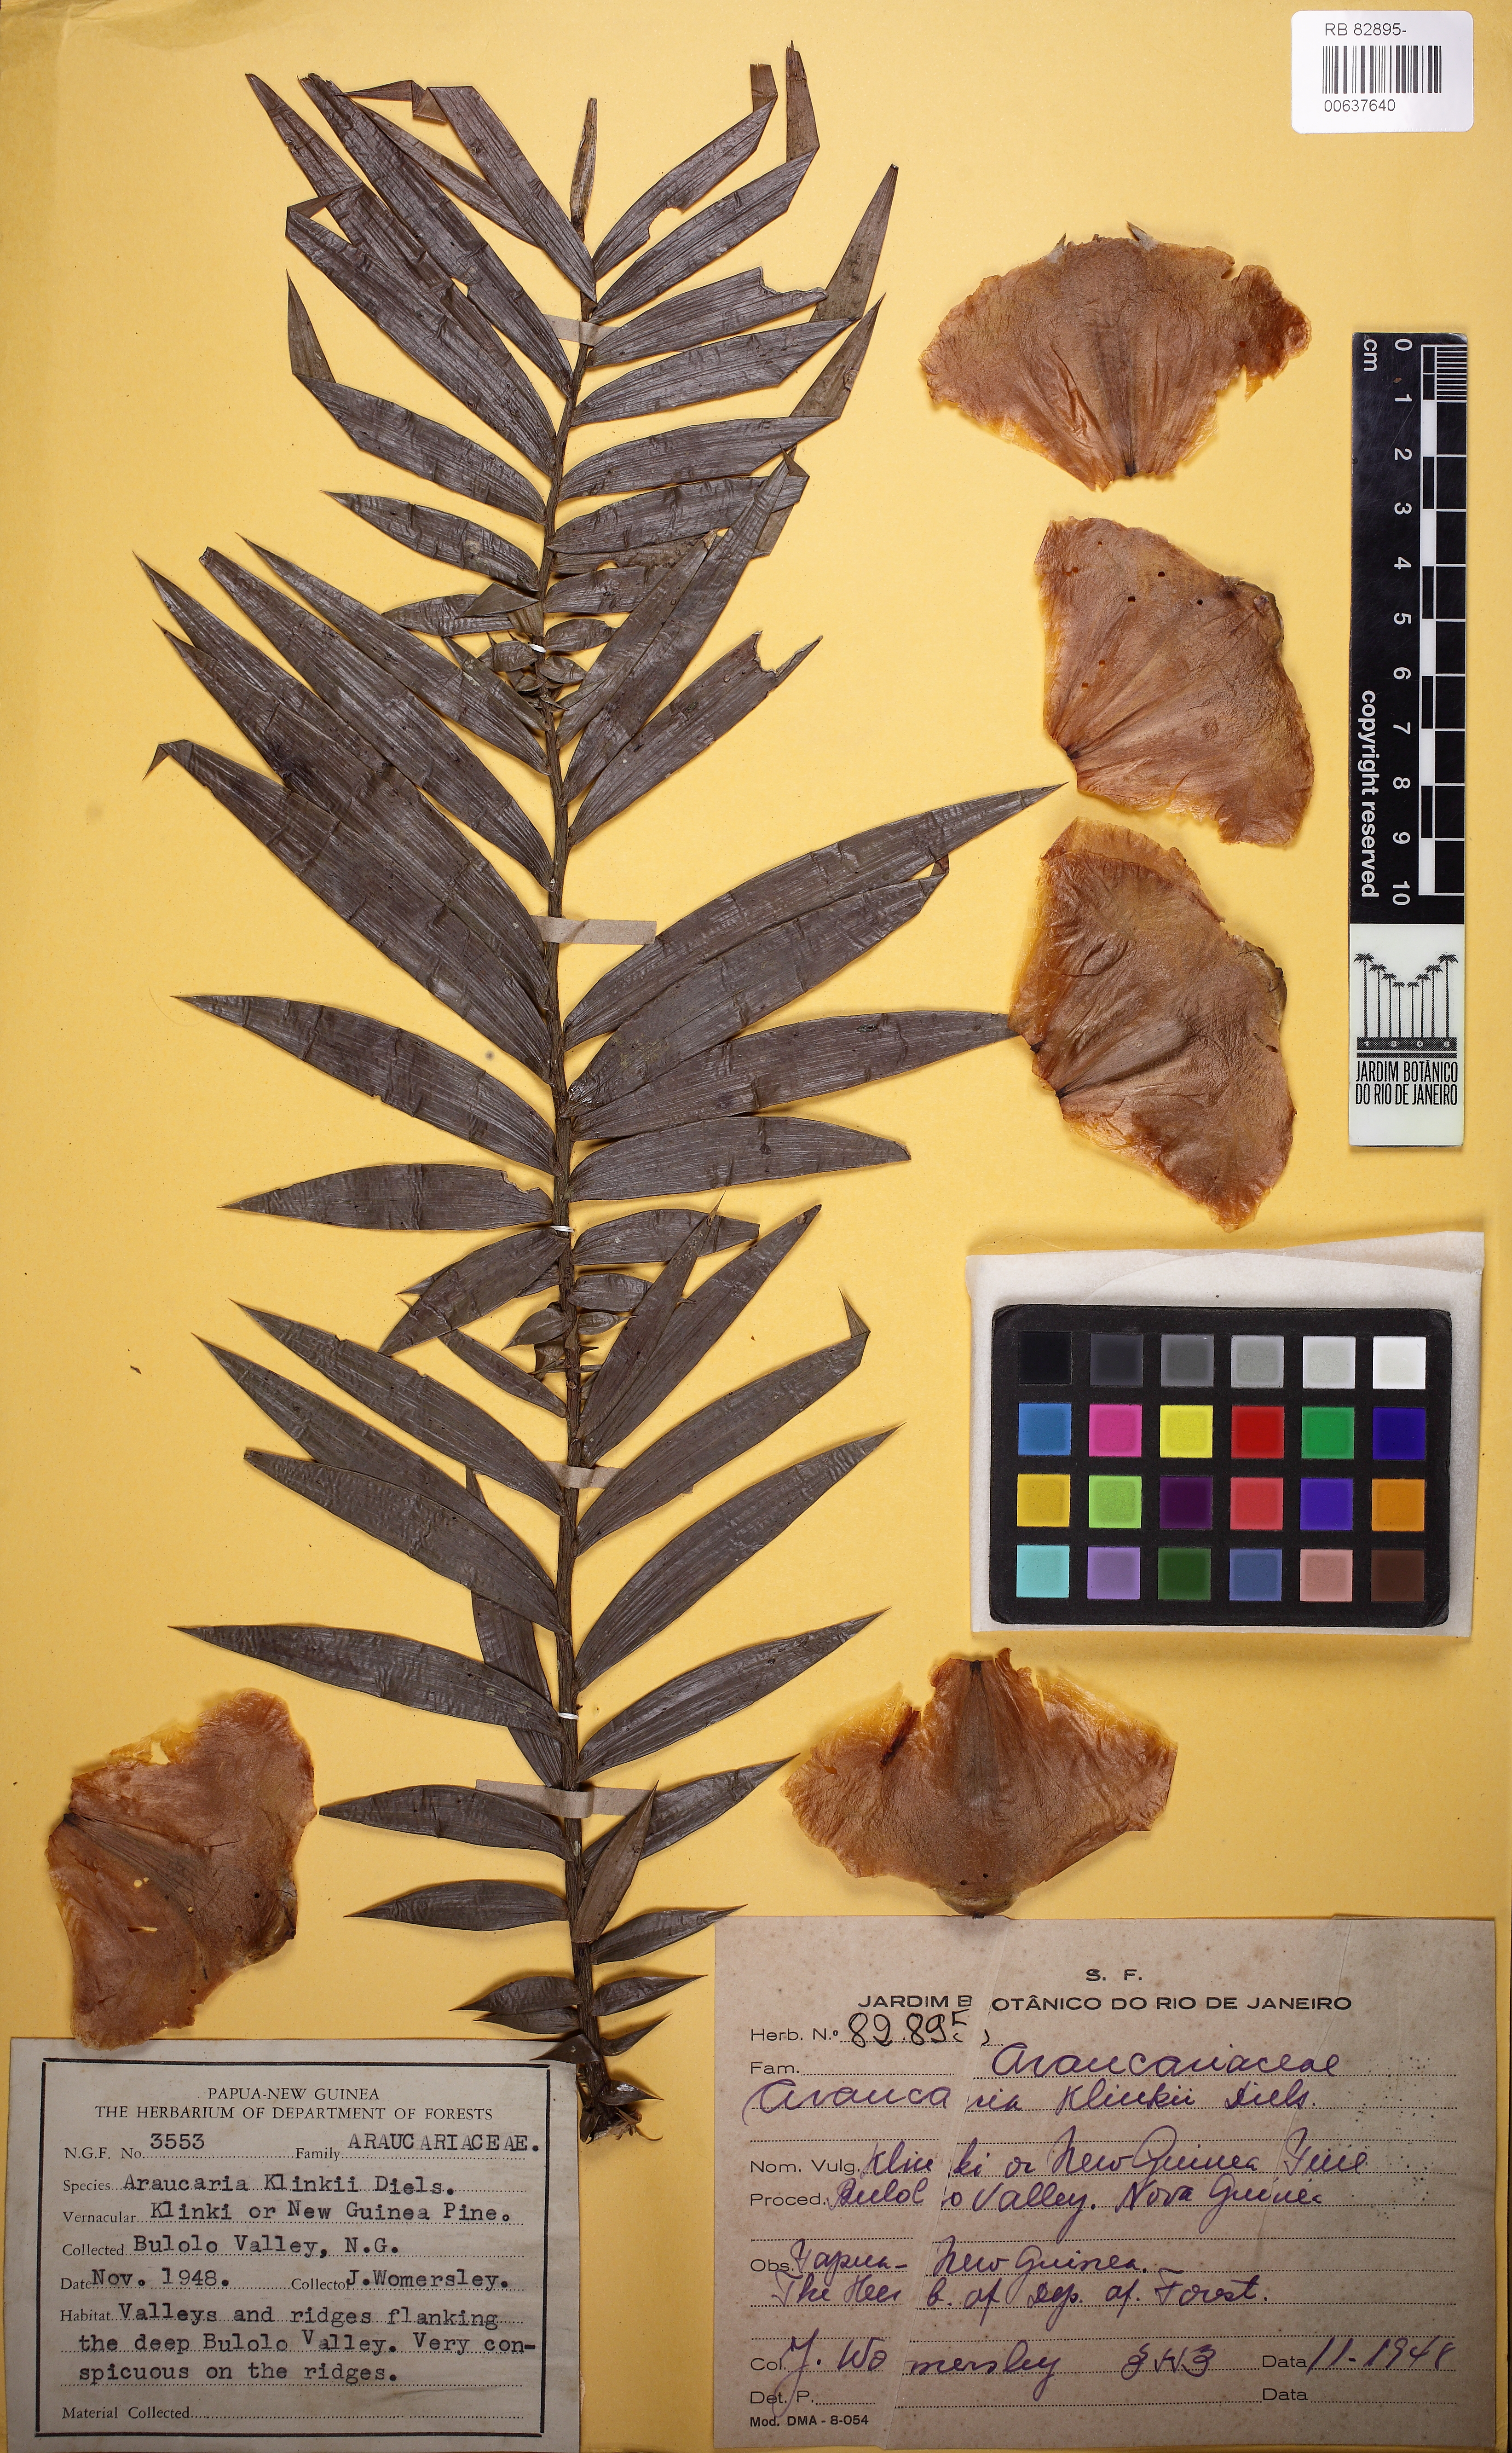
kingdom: Plantae
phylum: Tracheophyta
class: Pinopsida
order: Pinales
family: Araucariaceae
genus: Araucaria
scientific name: Araucaria hunsteinii
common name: Klinki pine
